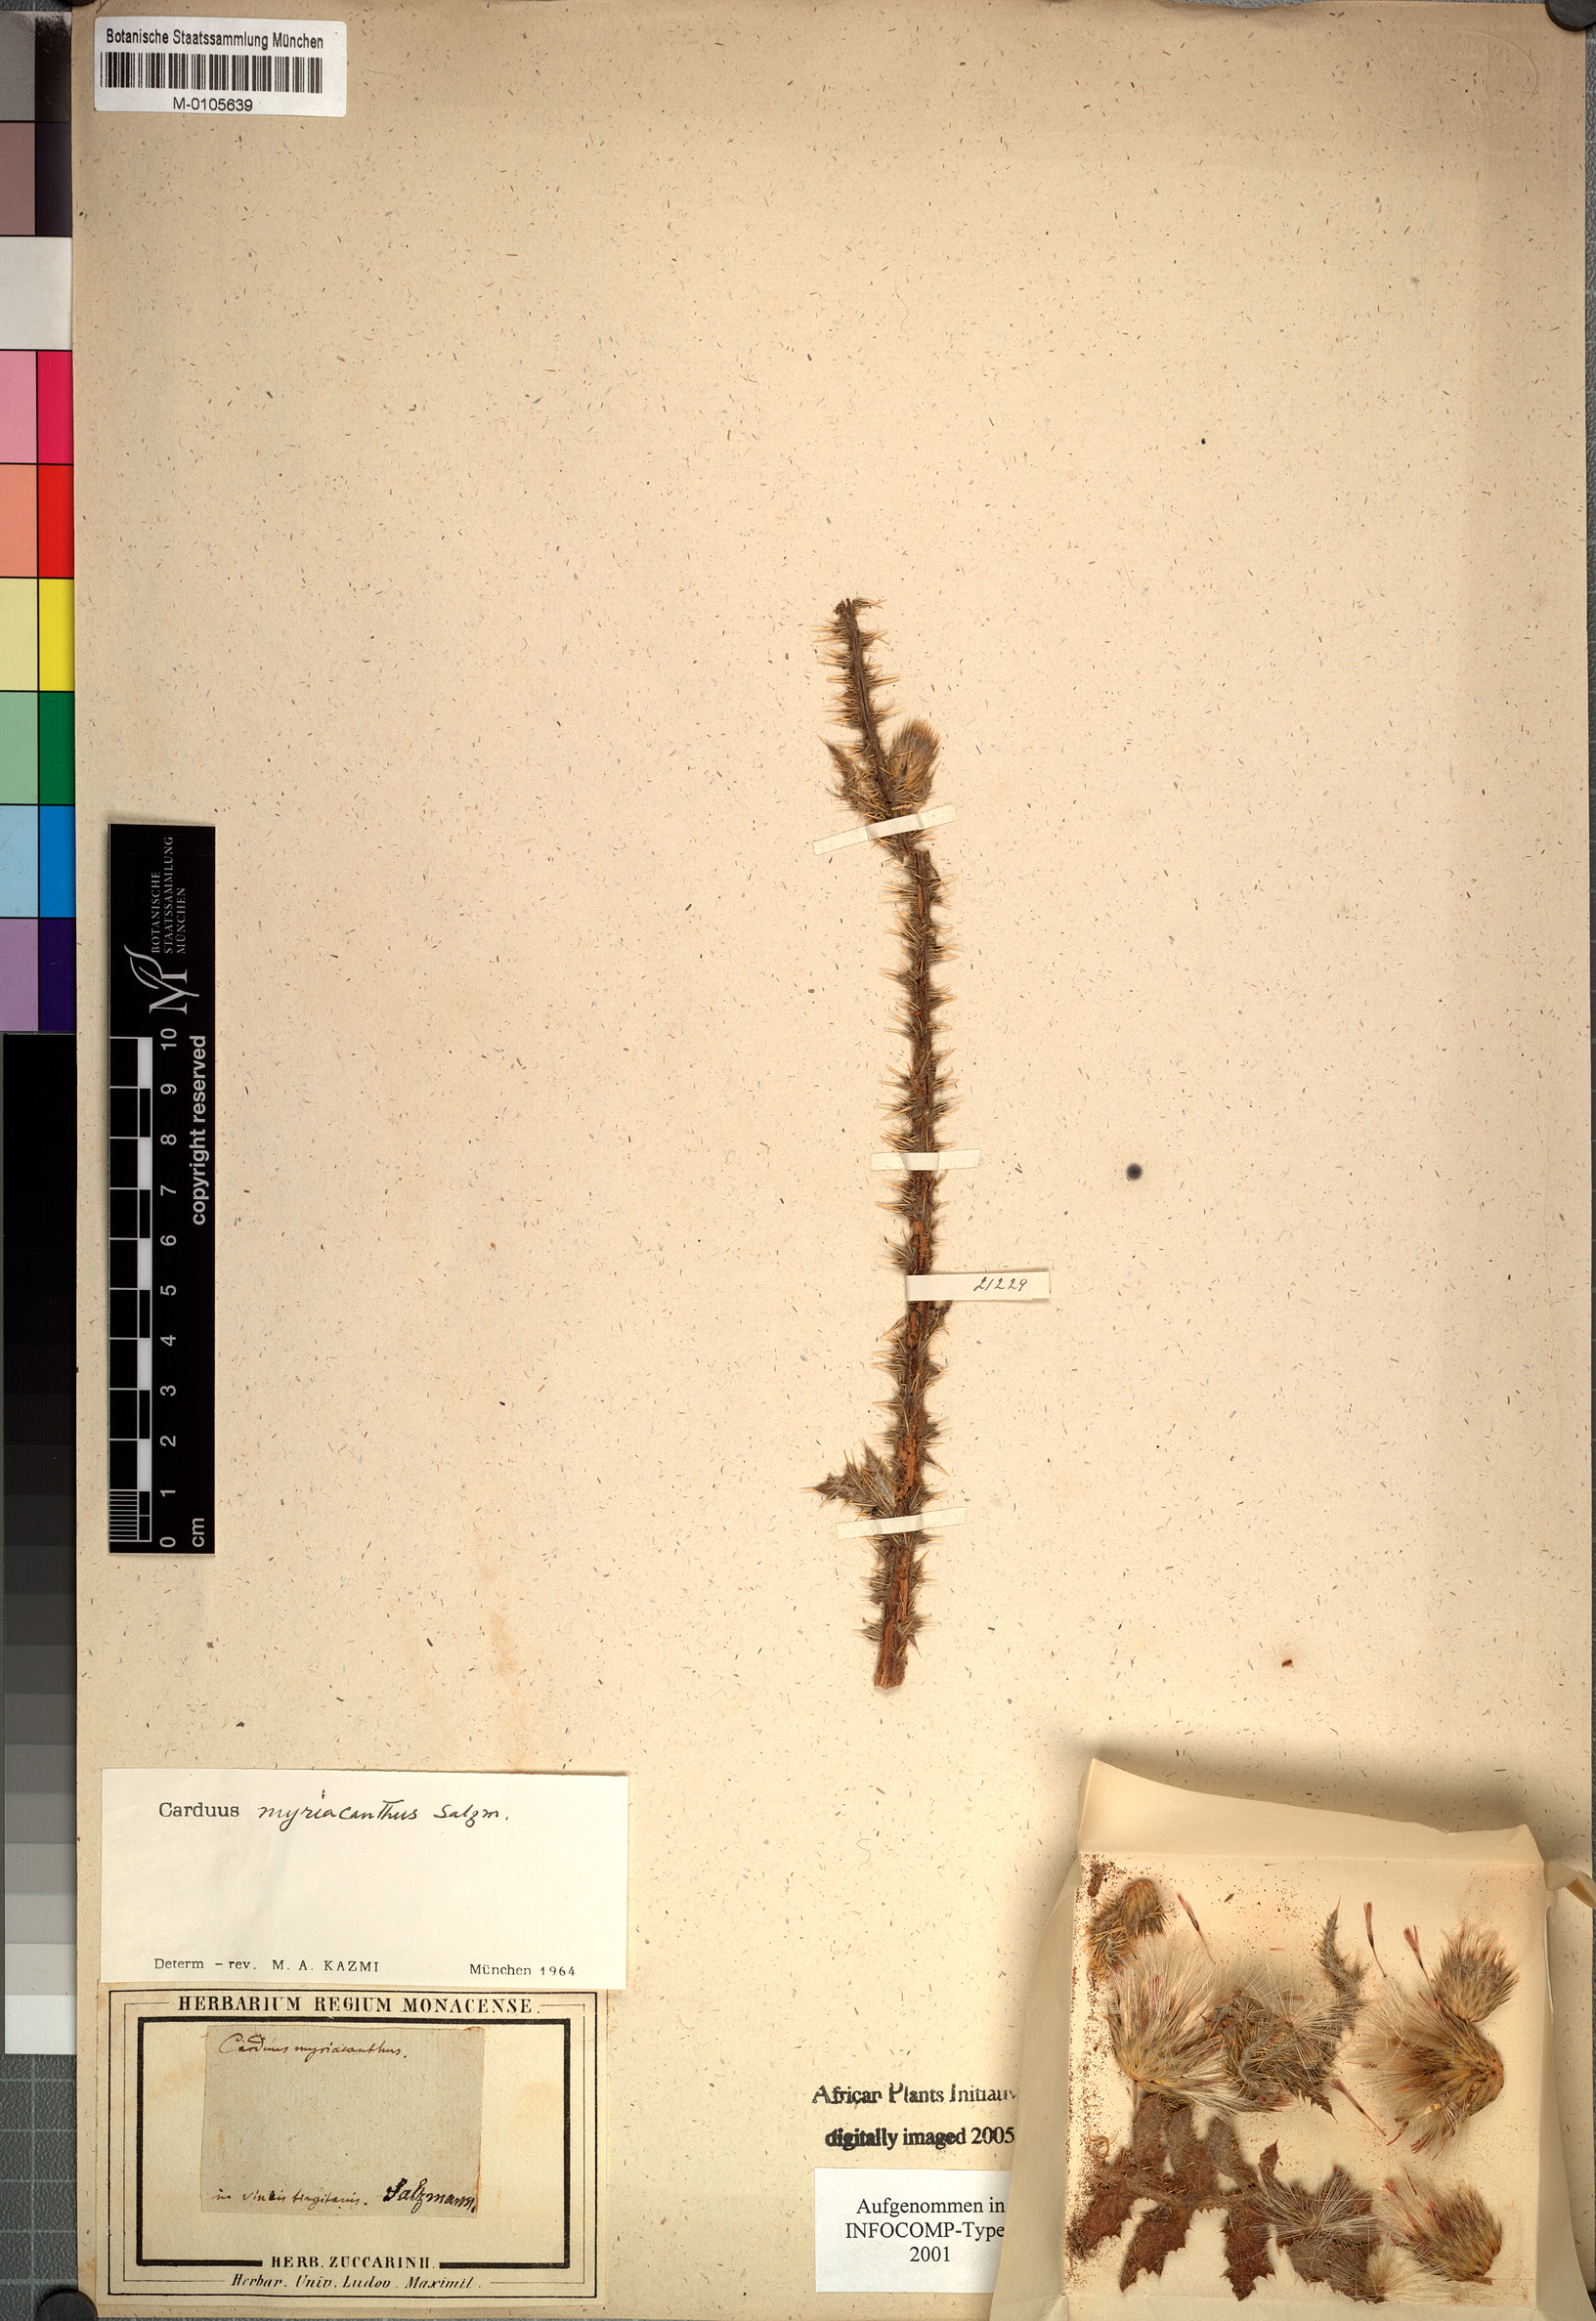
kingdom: Plantae
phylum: Tracheophyta
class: Magnoliopsida
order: Asterales
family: Asteraceae
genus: Carduus
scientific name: Carduus myriacanthus
